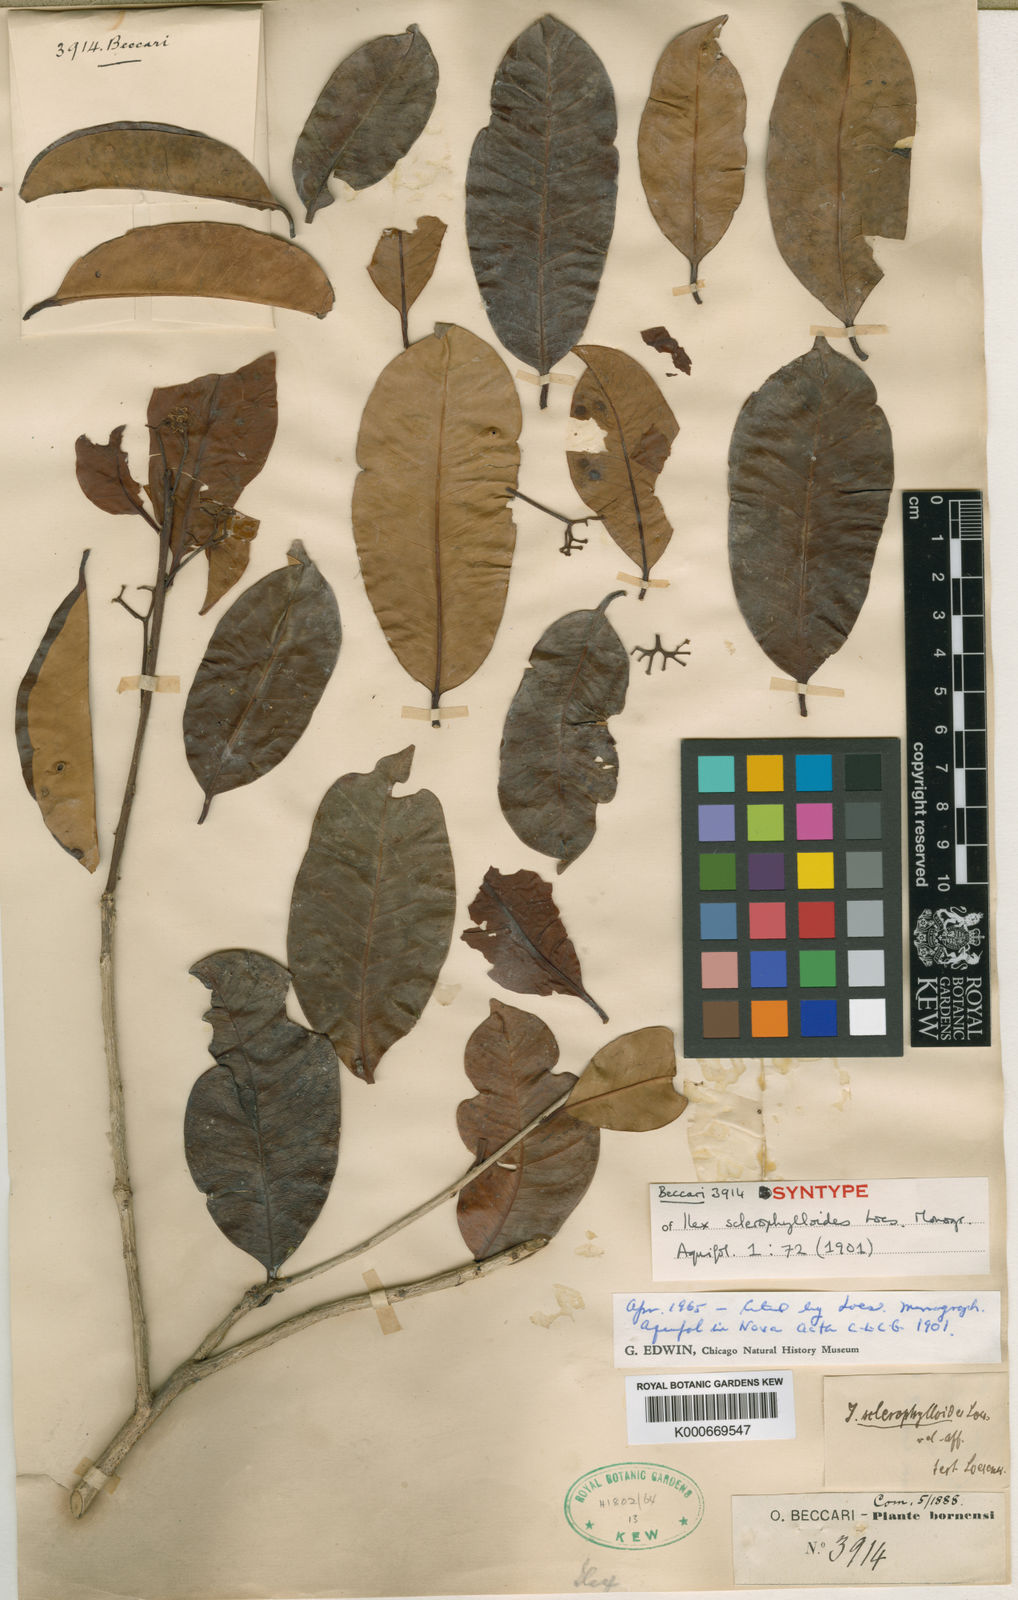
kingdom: Plantae
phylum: Tracheophyta
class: Magnoliopsida
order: Aquifoliales
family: Aquifoliaceae
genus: Ilex
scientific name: Ilex wallichii
